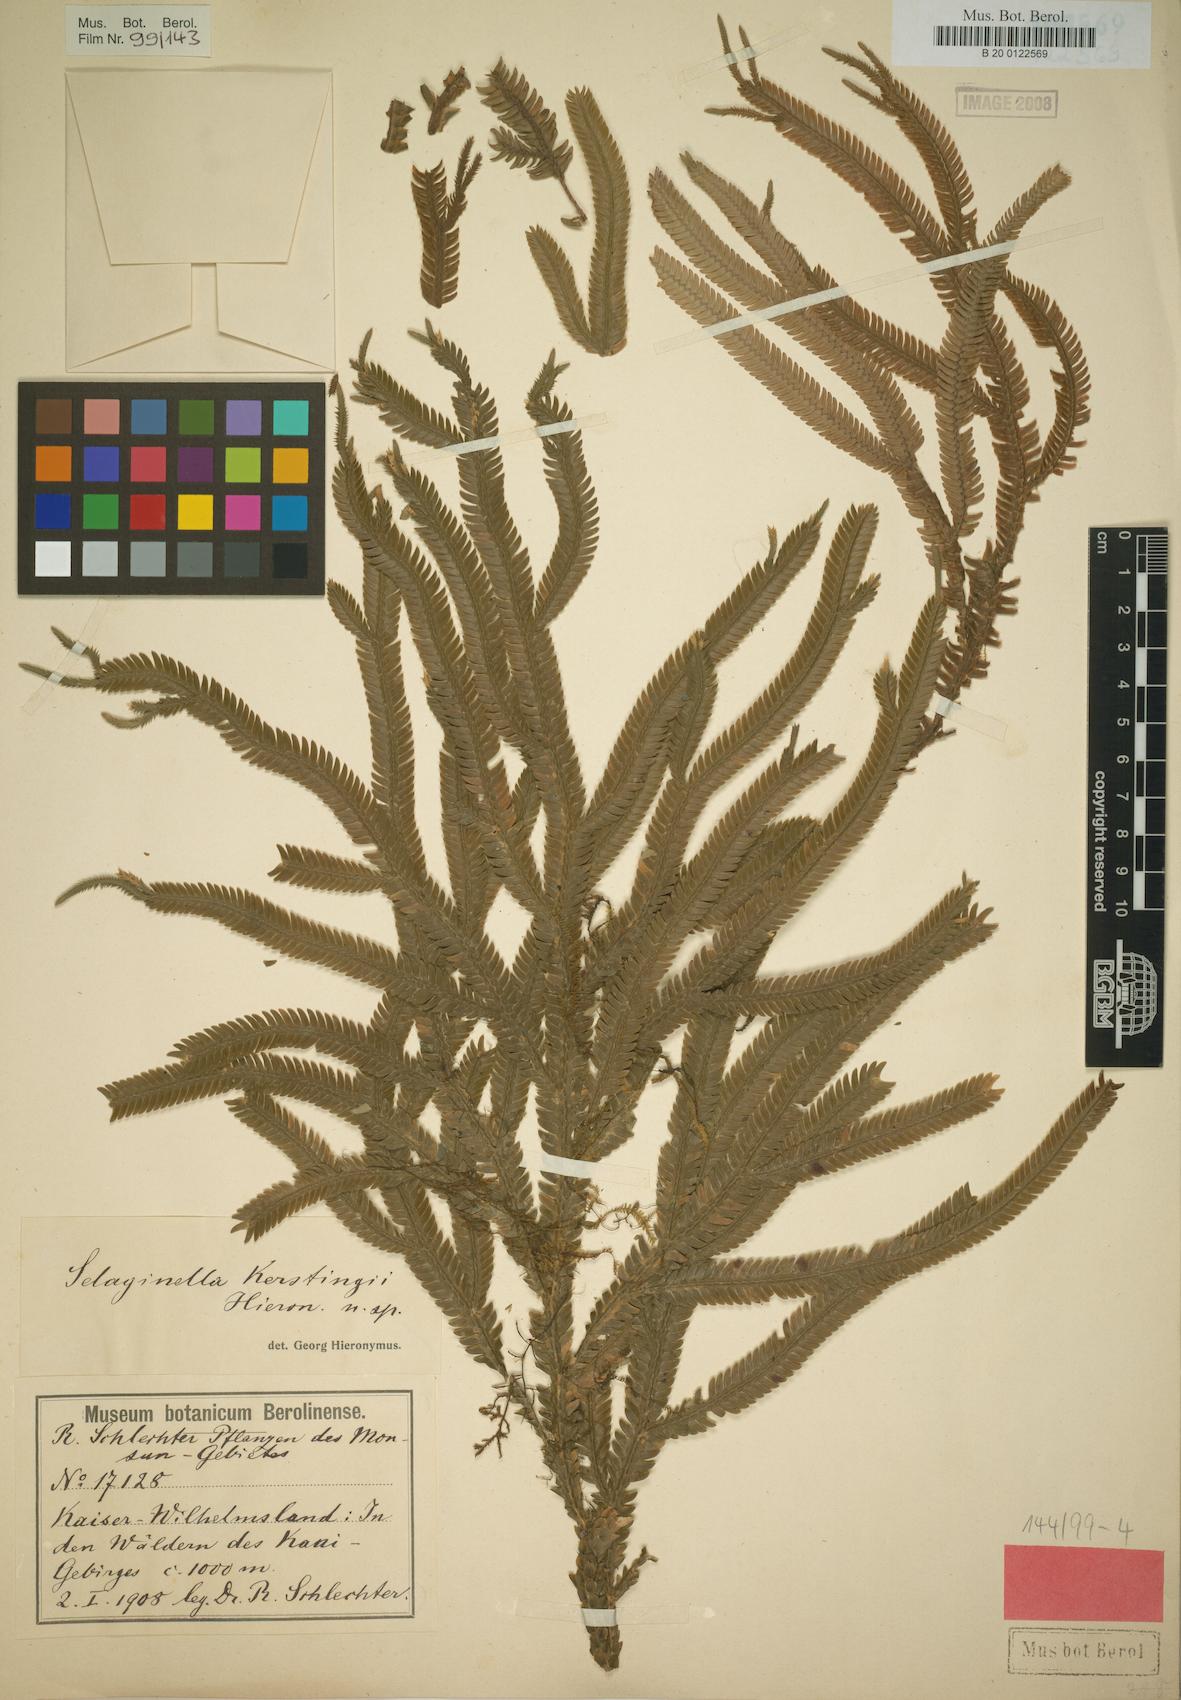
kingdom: Plantae
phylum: Tracheophyta
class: Lycopodiopsida
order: Selaginellales
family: Selaginellaceae
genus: Selaginella
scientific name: Selaginella kerstingii
